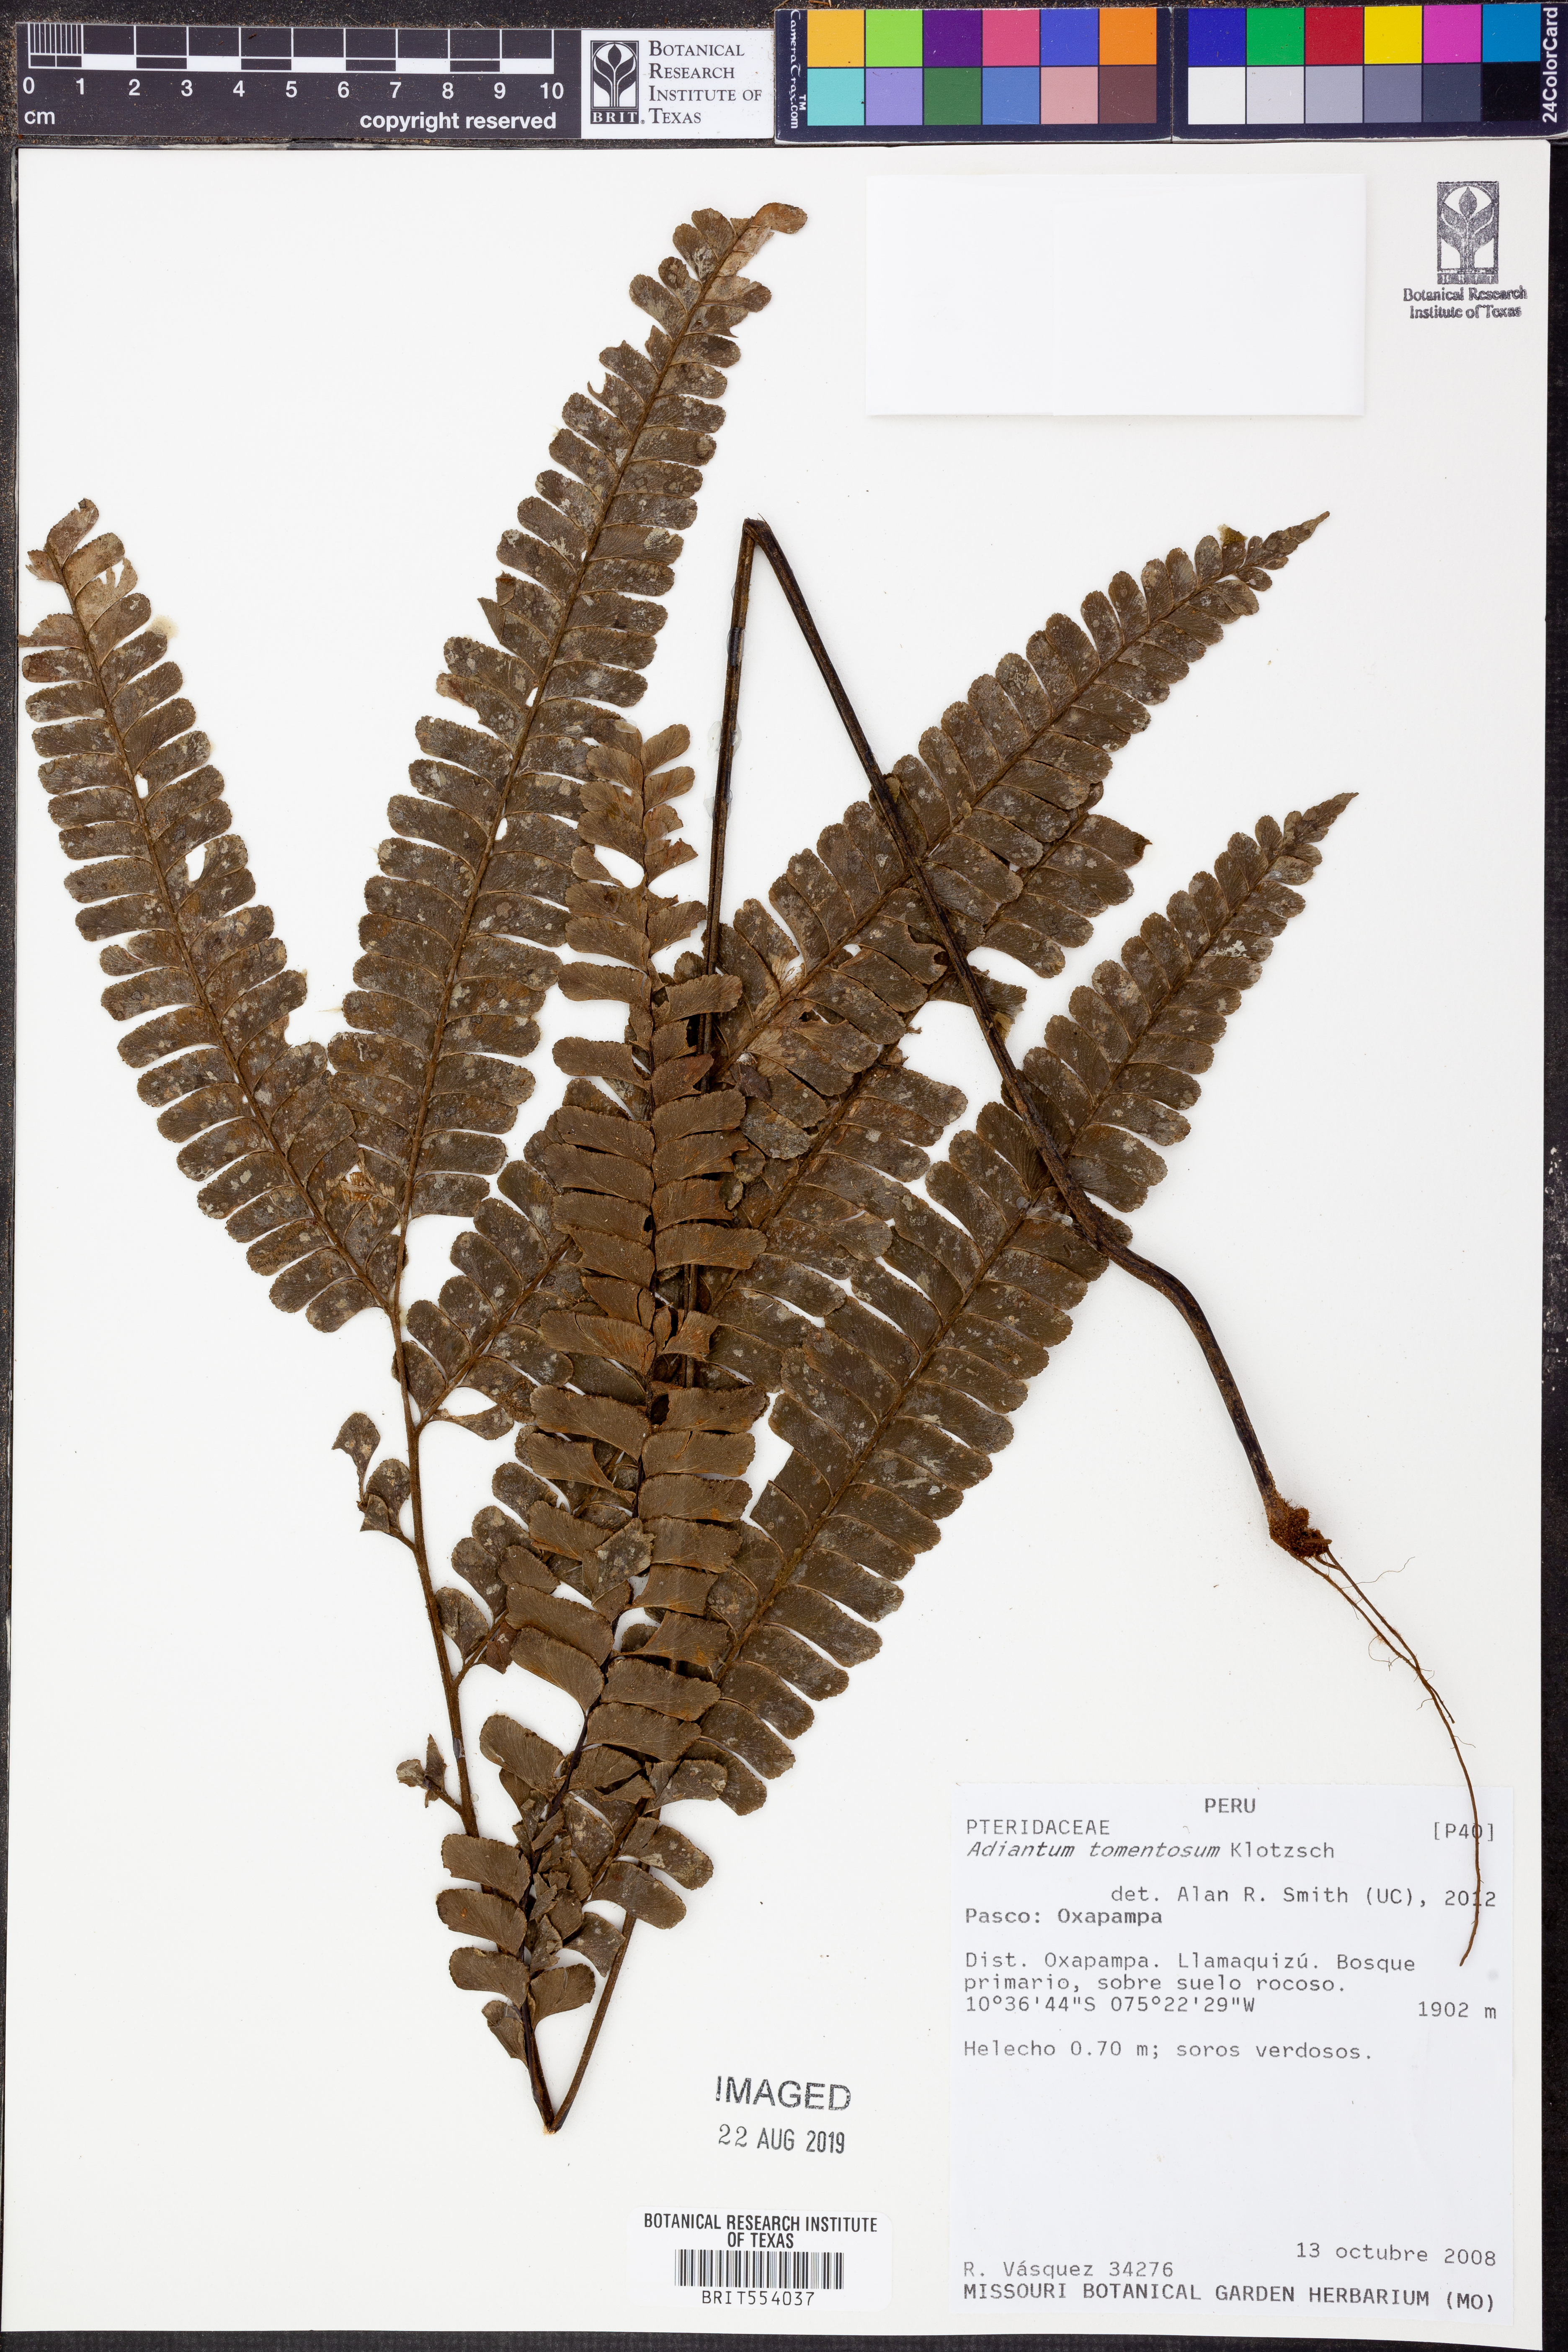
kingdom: Plantae
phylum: Tracheophyta
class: Polypodiopsida
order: Polypodiales
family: Pteridaceae
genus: Adiantum
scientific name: Adiantum tomentosum
